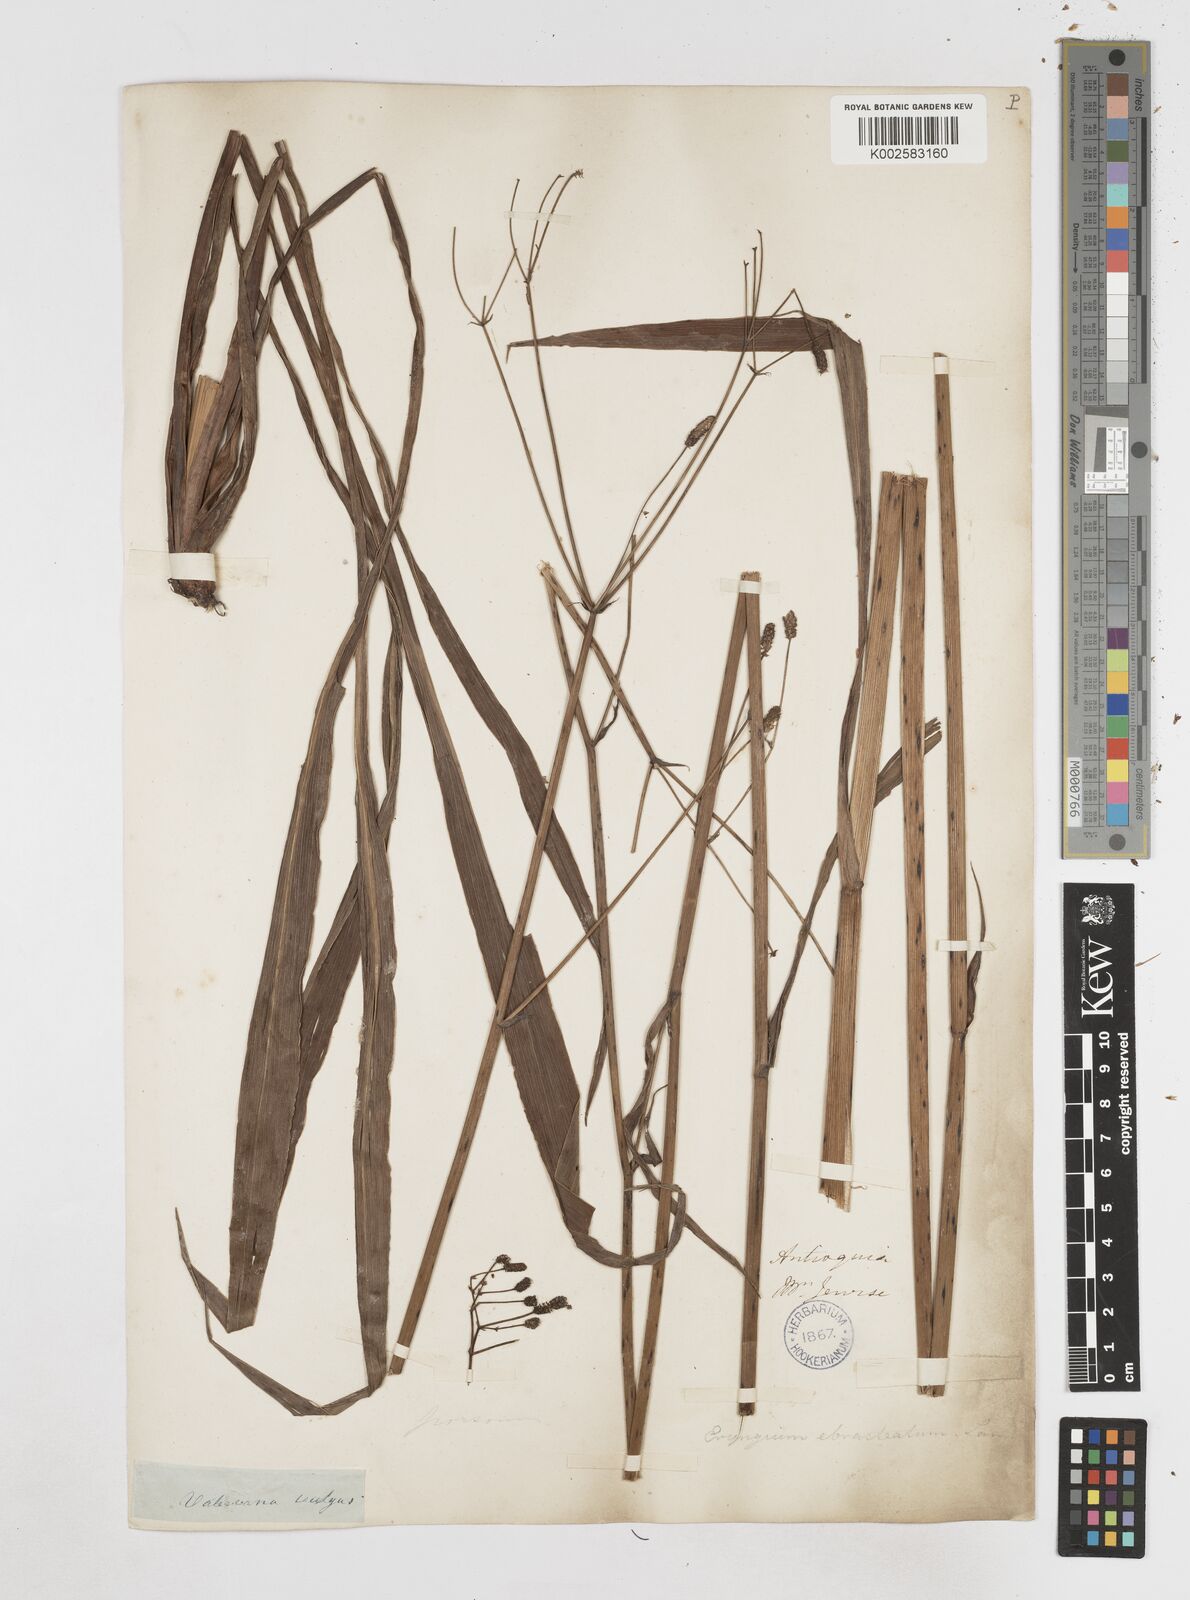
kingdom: Plantae
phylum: Tracheophyta
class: Magnoliopsida
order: Apiales
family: Apiaceae
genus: Eryngium
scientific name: Eryngium ebracteatum
